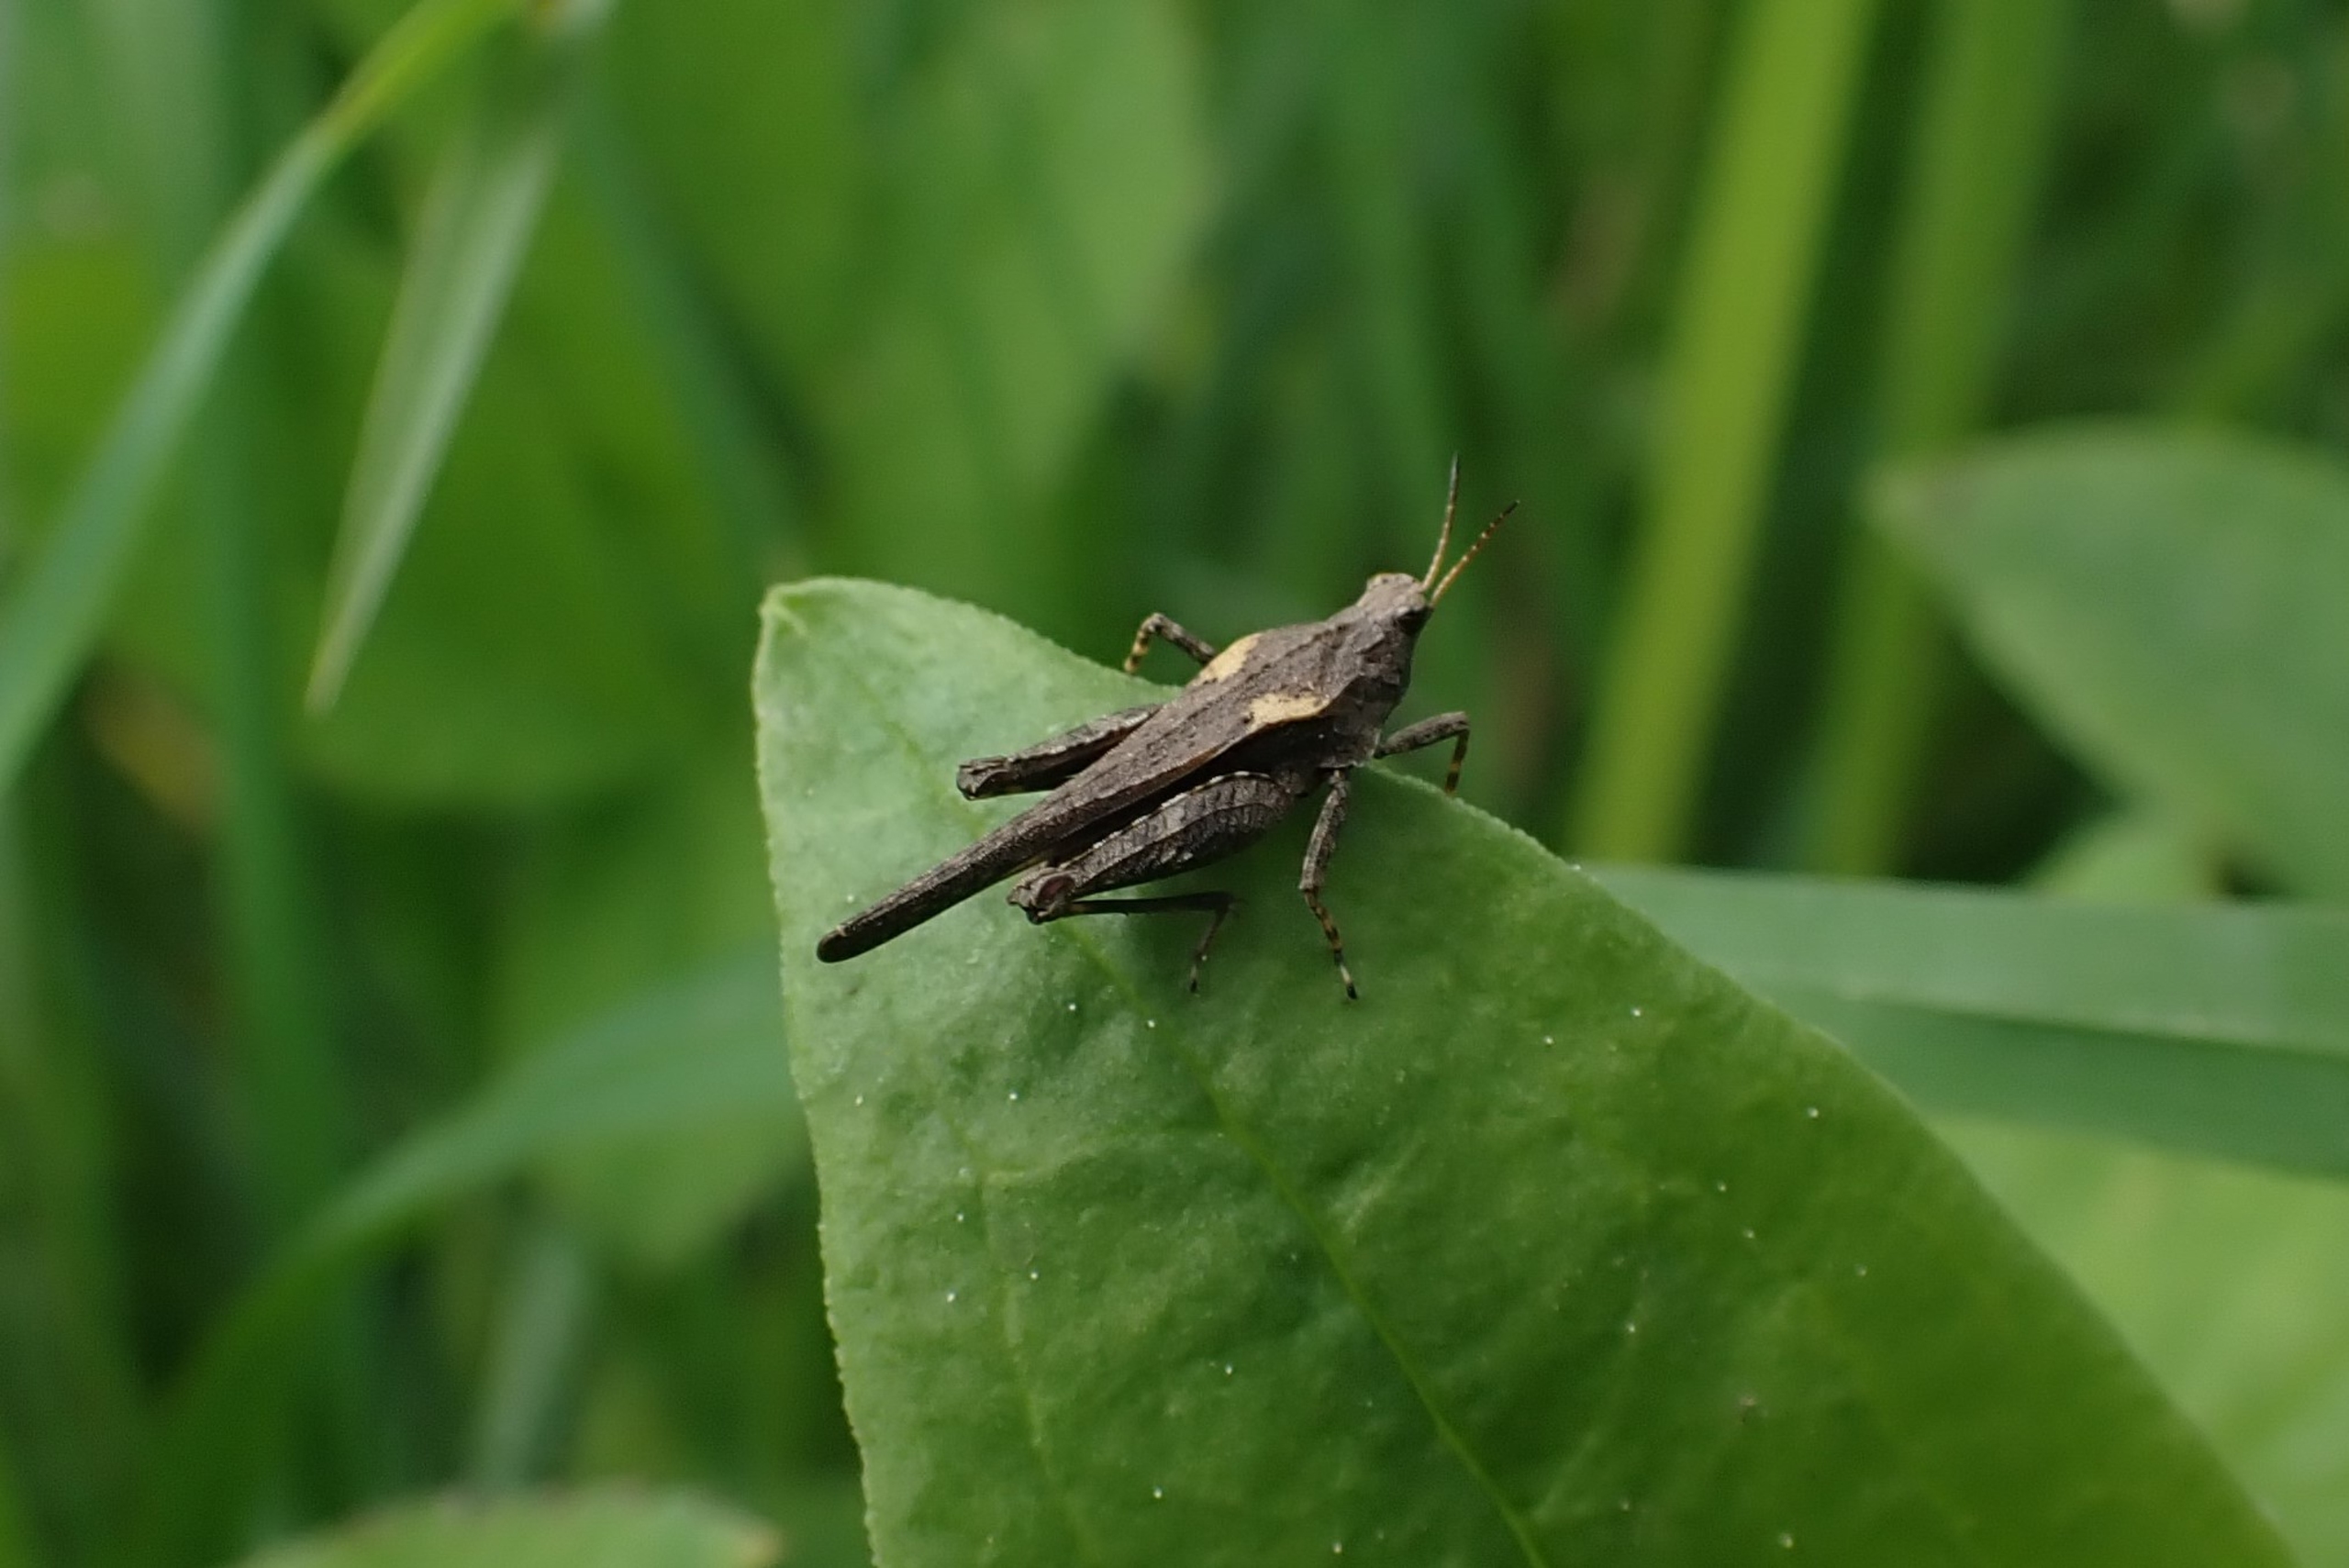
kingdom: Animalia
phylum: Arthropoda
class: Insecta
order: Orthoptera
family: Tetrigidae
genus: Tetrix
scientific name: Tetrix subulata
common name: Sump-torngræshoppe
